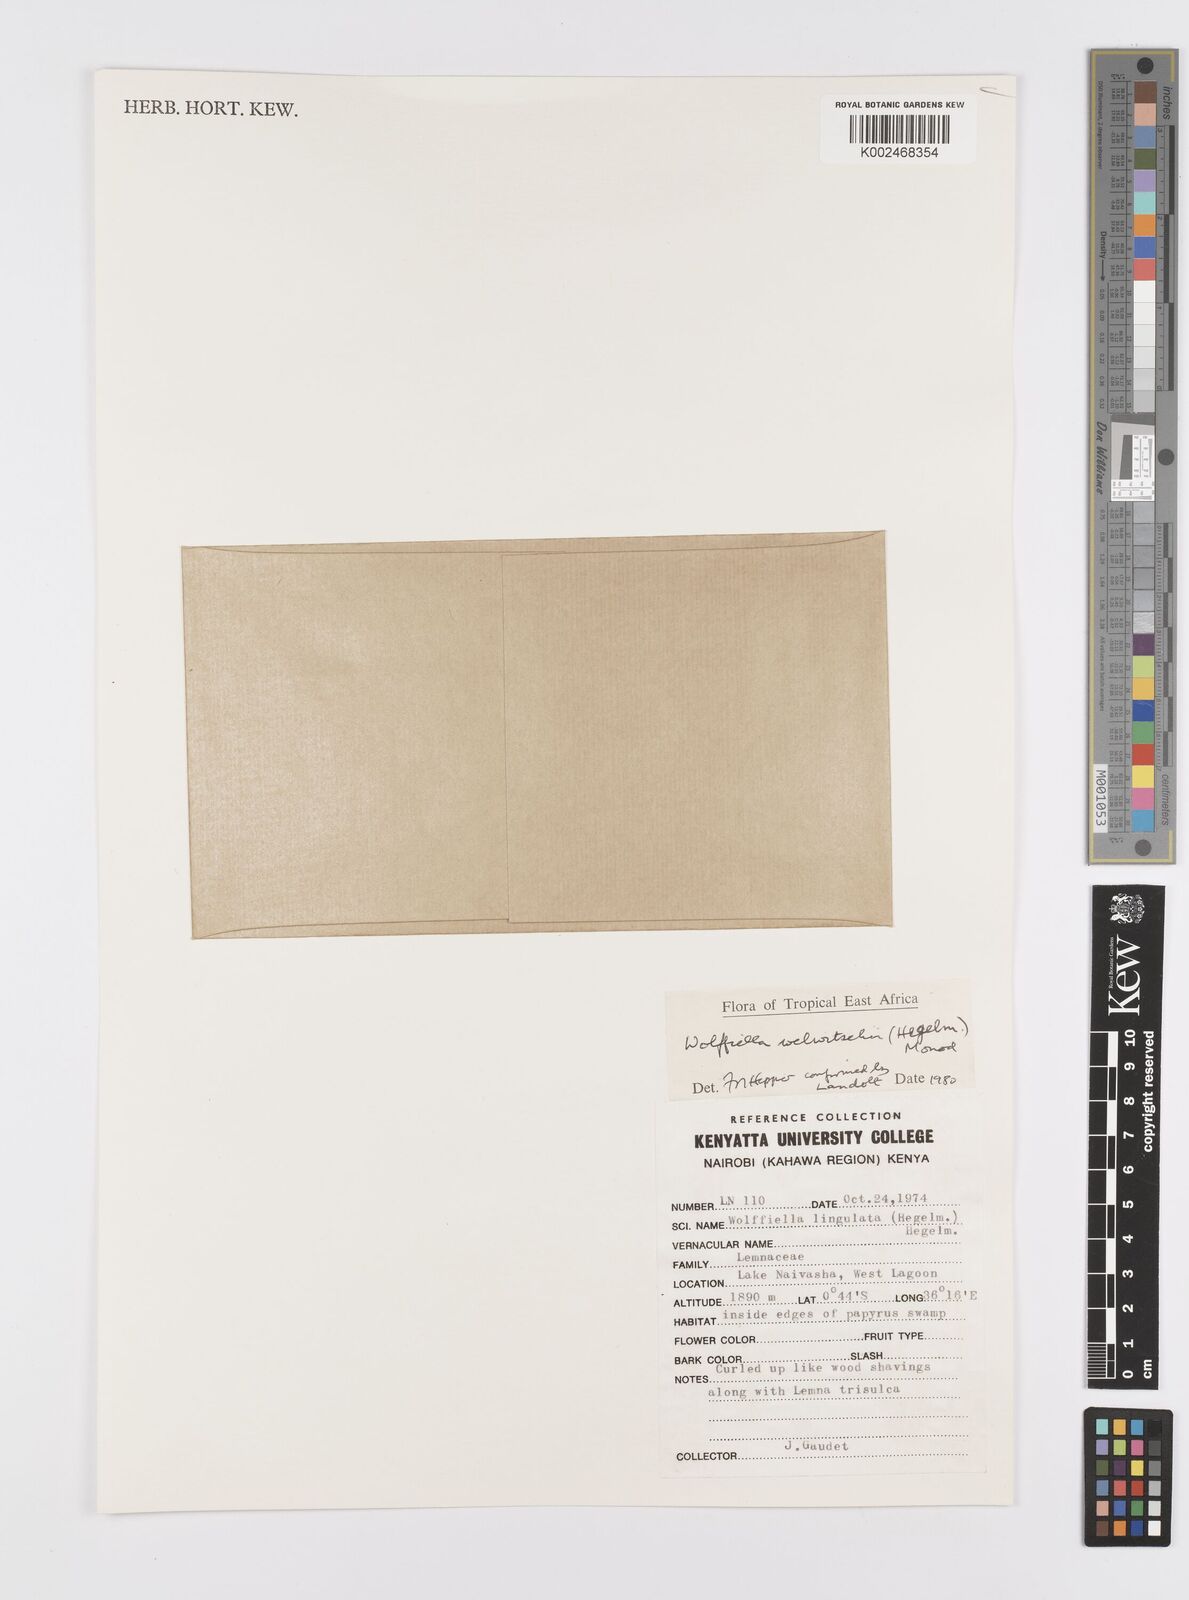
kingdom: Plantae
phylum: Tracheophyta
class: Liliopsida
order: Alismatales
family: Araceae
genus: Wolffiella
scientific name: Wolffiella welwitschii
